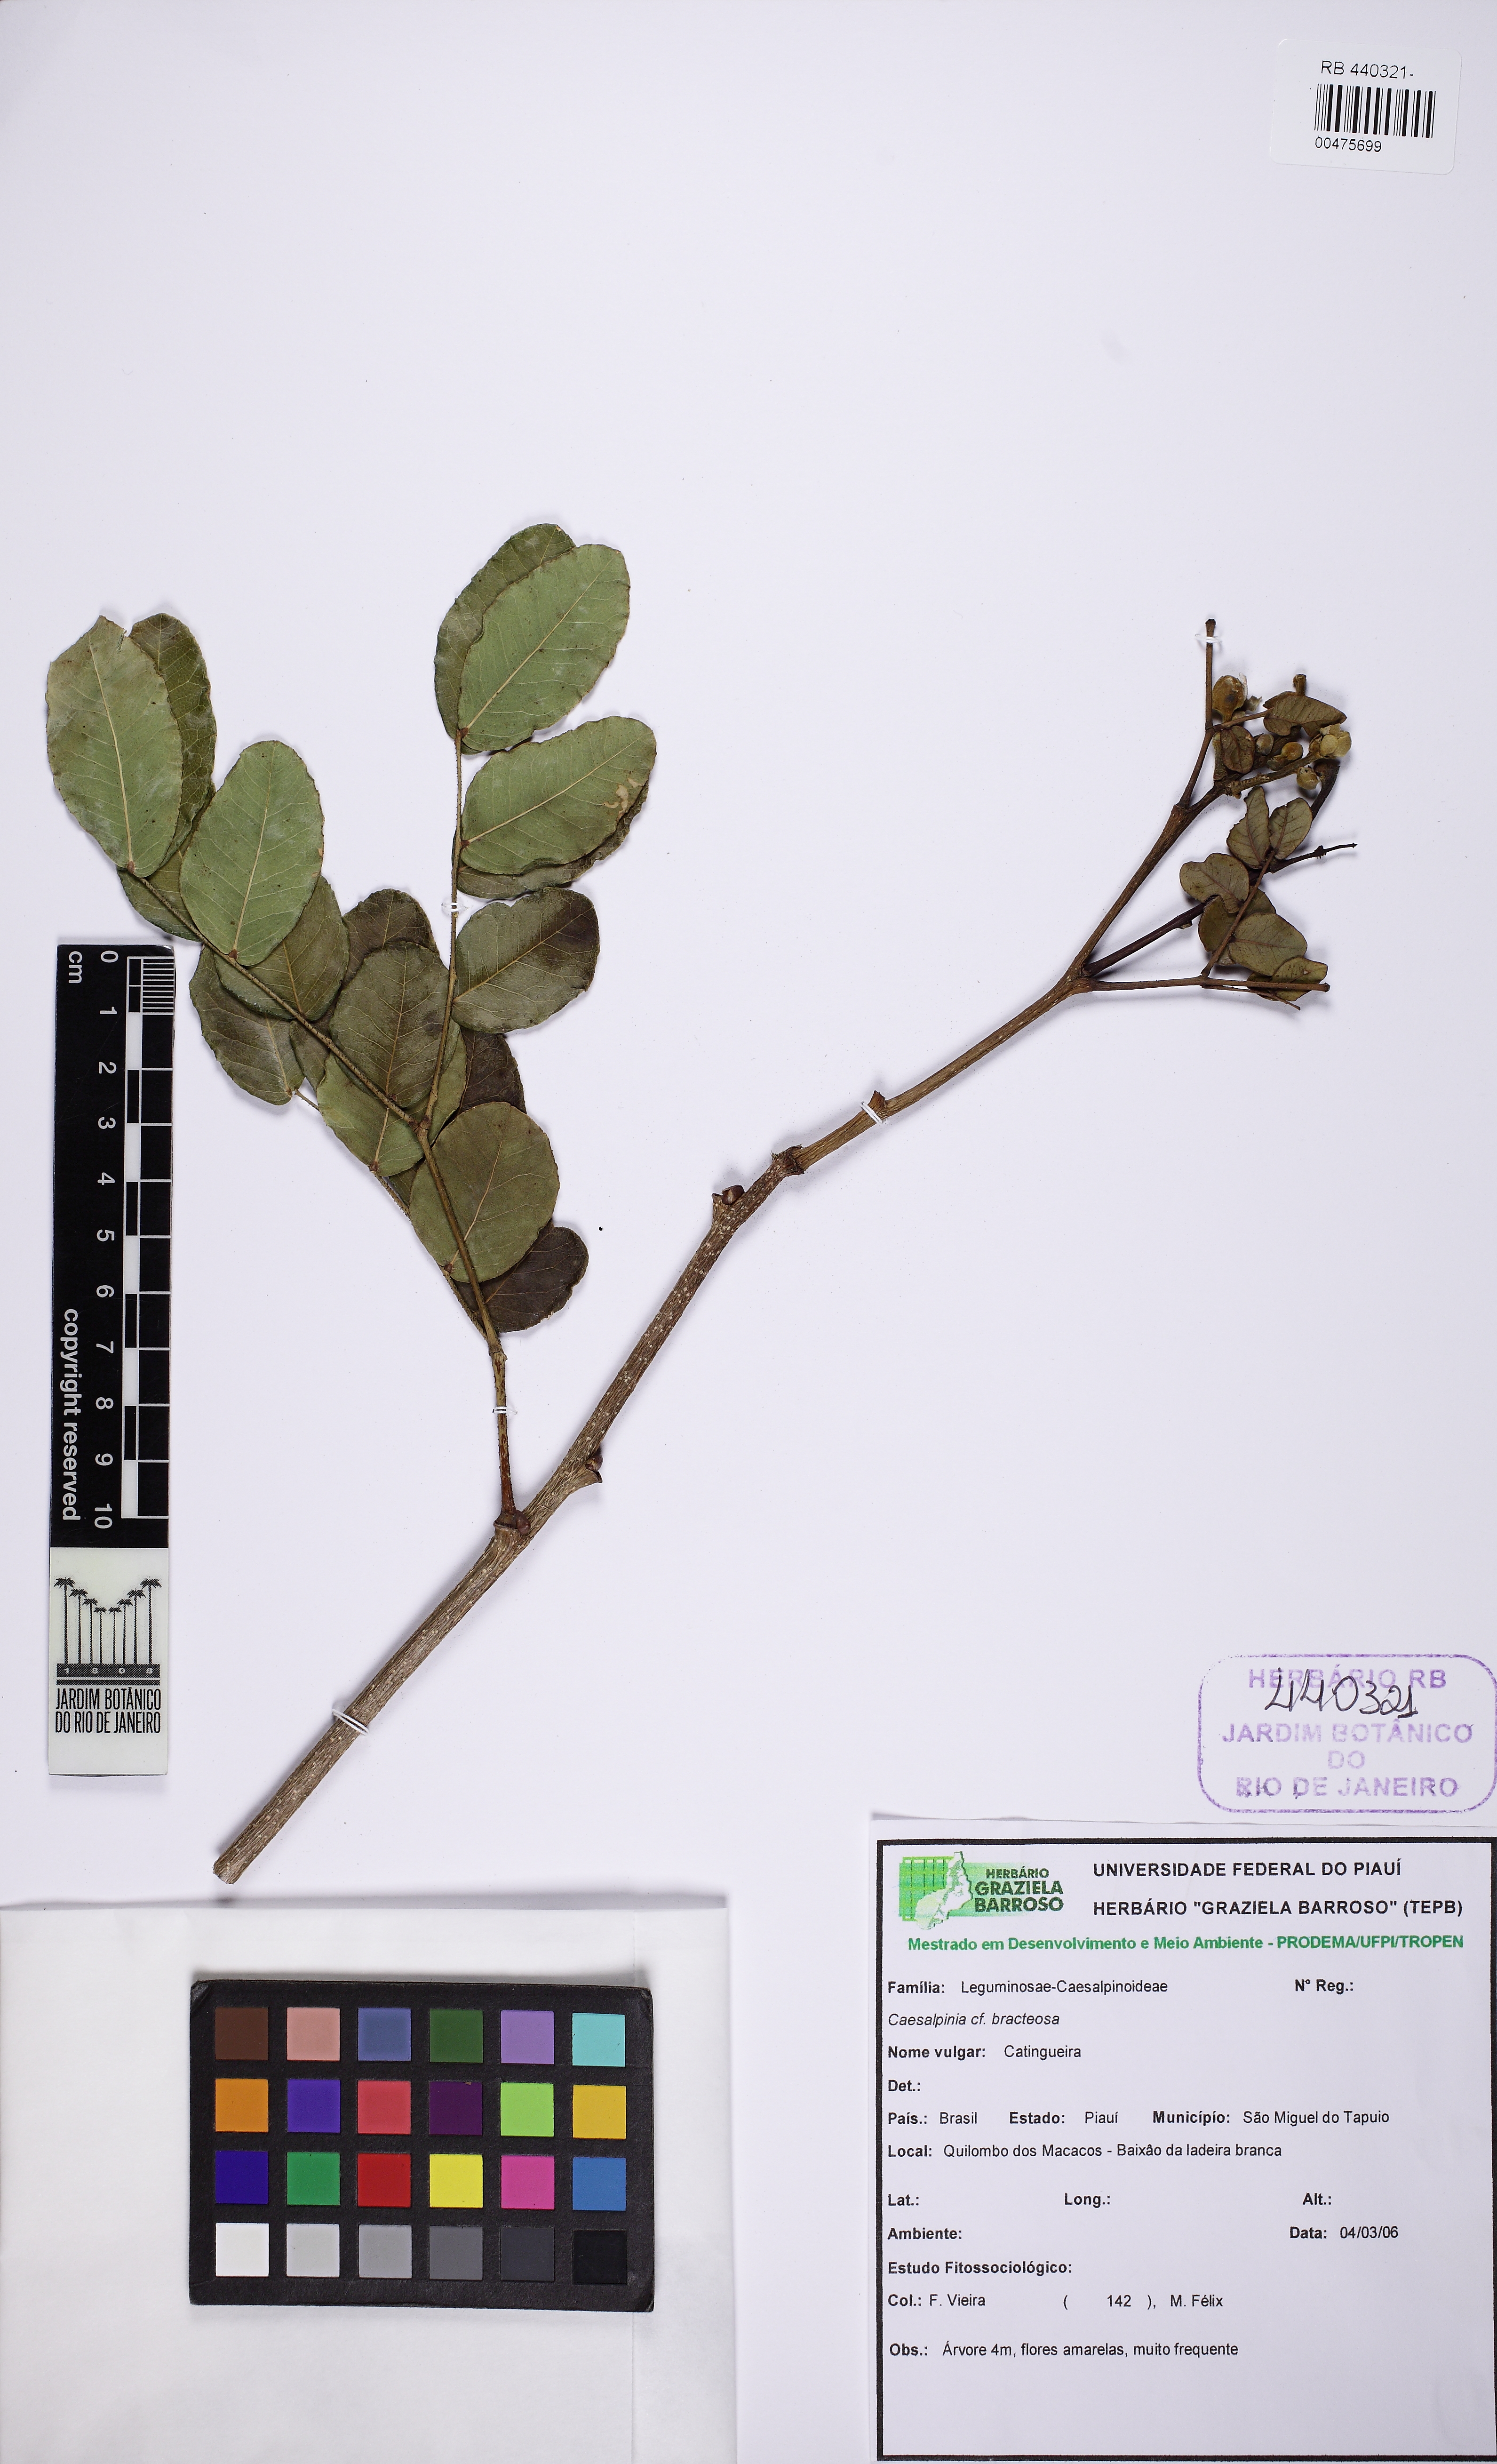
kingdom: Plantae
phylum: Tracheophyta
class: Magnoliopsida
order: Fabales
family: Fabaceae
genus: Cenostigma
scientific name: Cenostigma bracteosum
